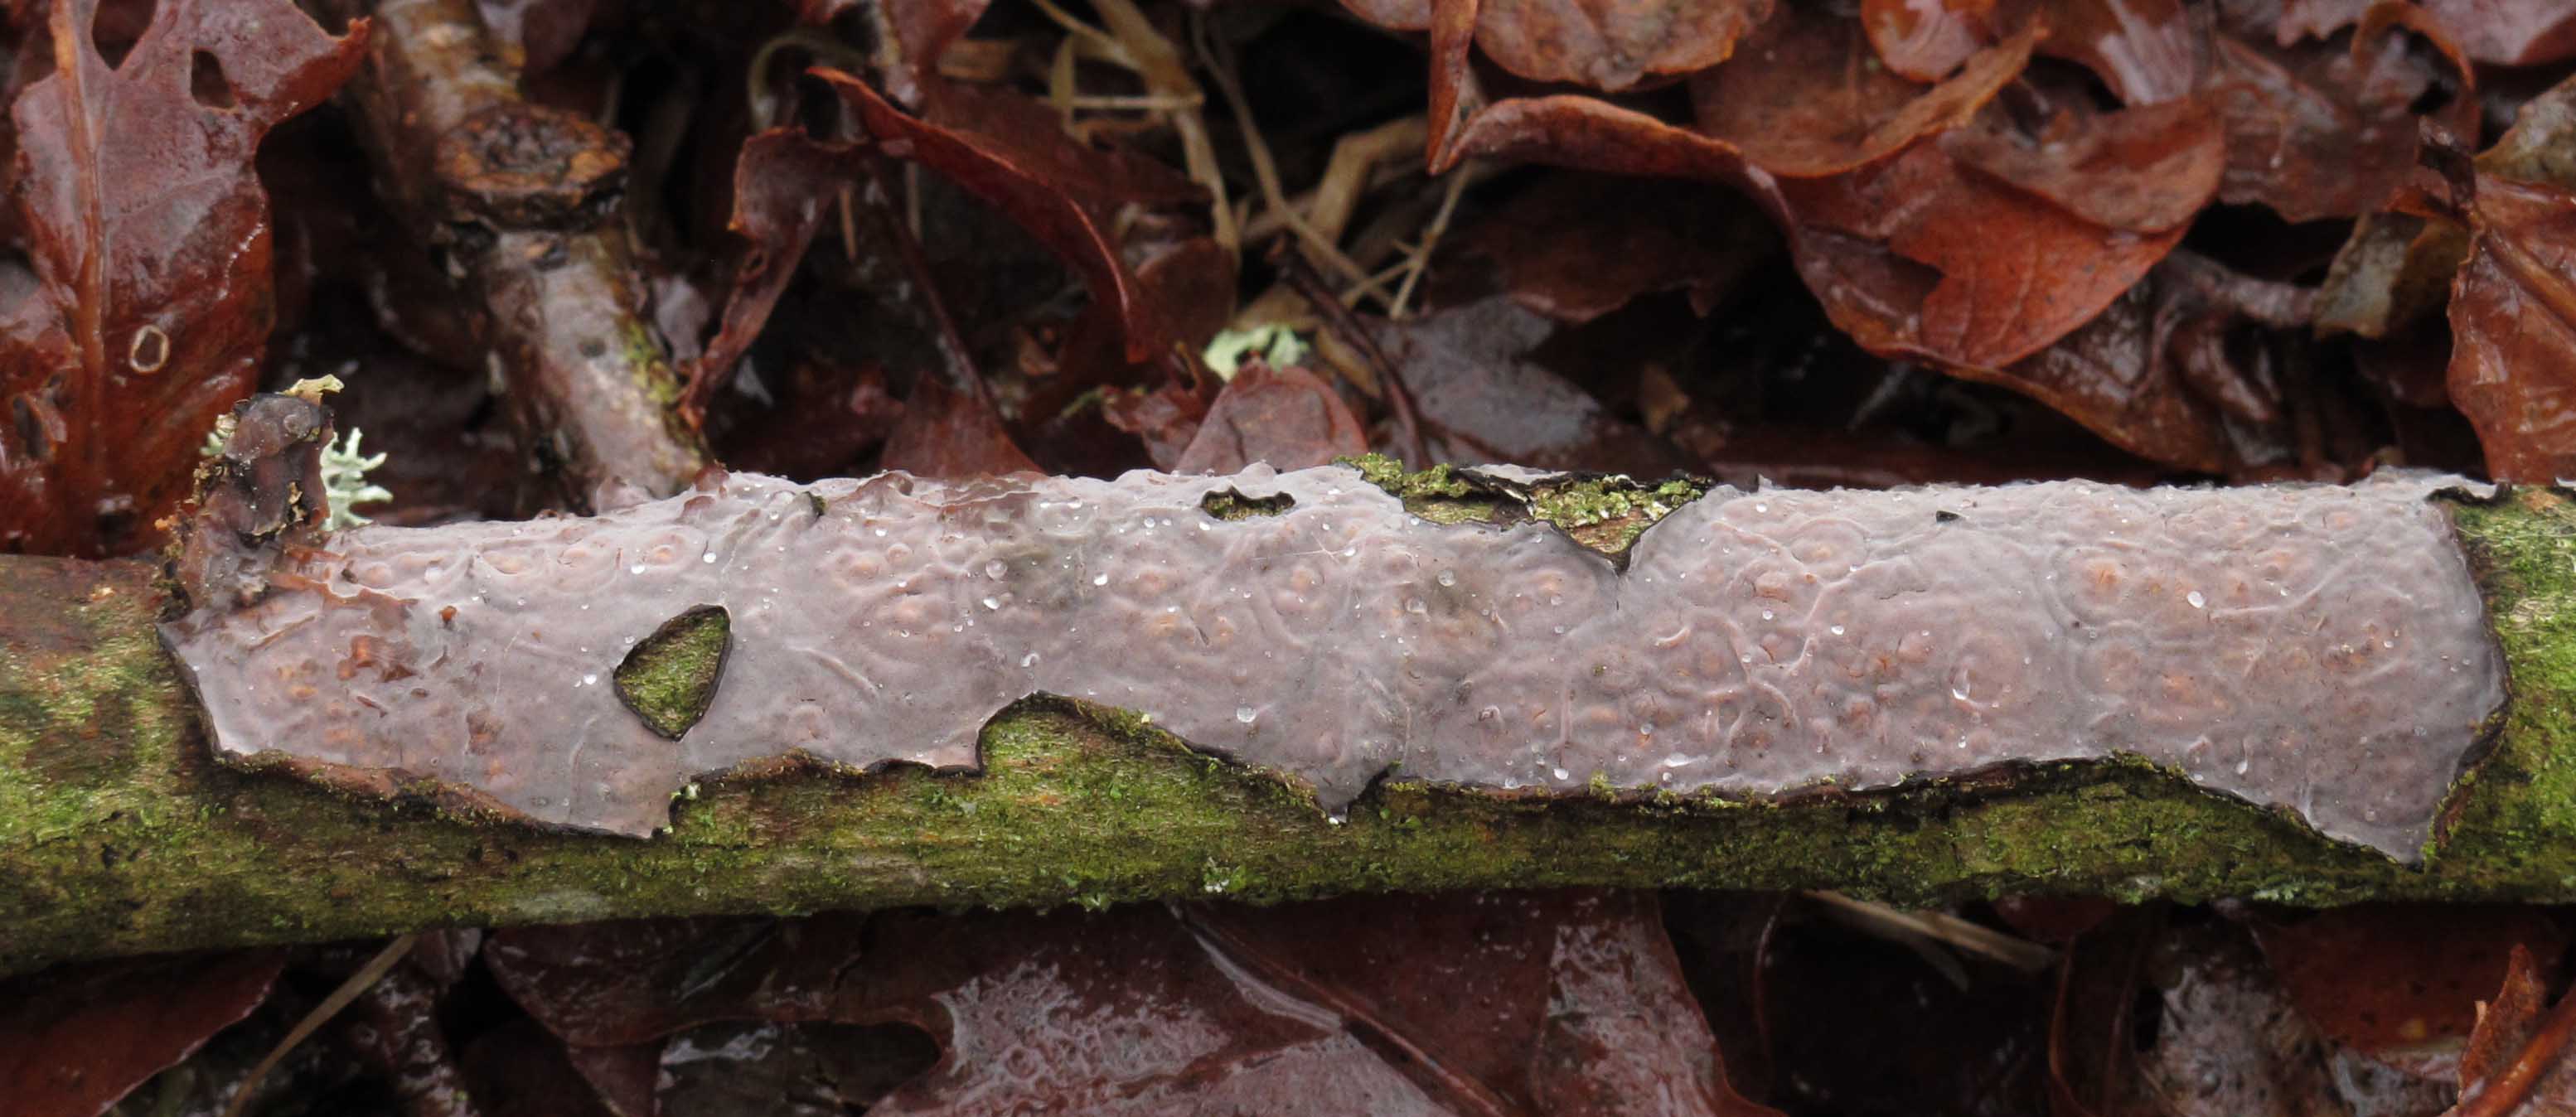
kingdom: Fungi
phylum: Basidiomycota
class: Agaricomycetes
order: Russulales
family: Peniophoraceae
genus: Peniophora
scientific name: Peniophora quercina
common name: ege-voksskind
